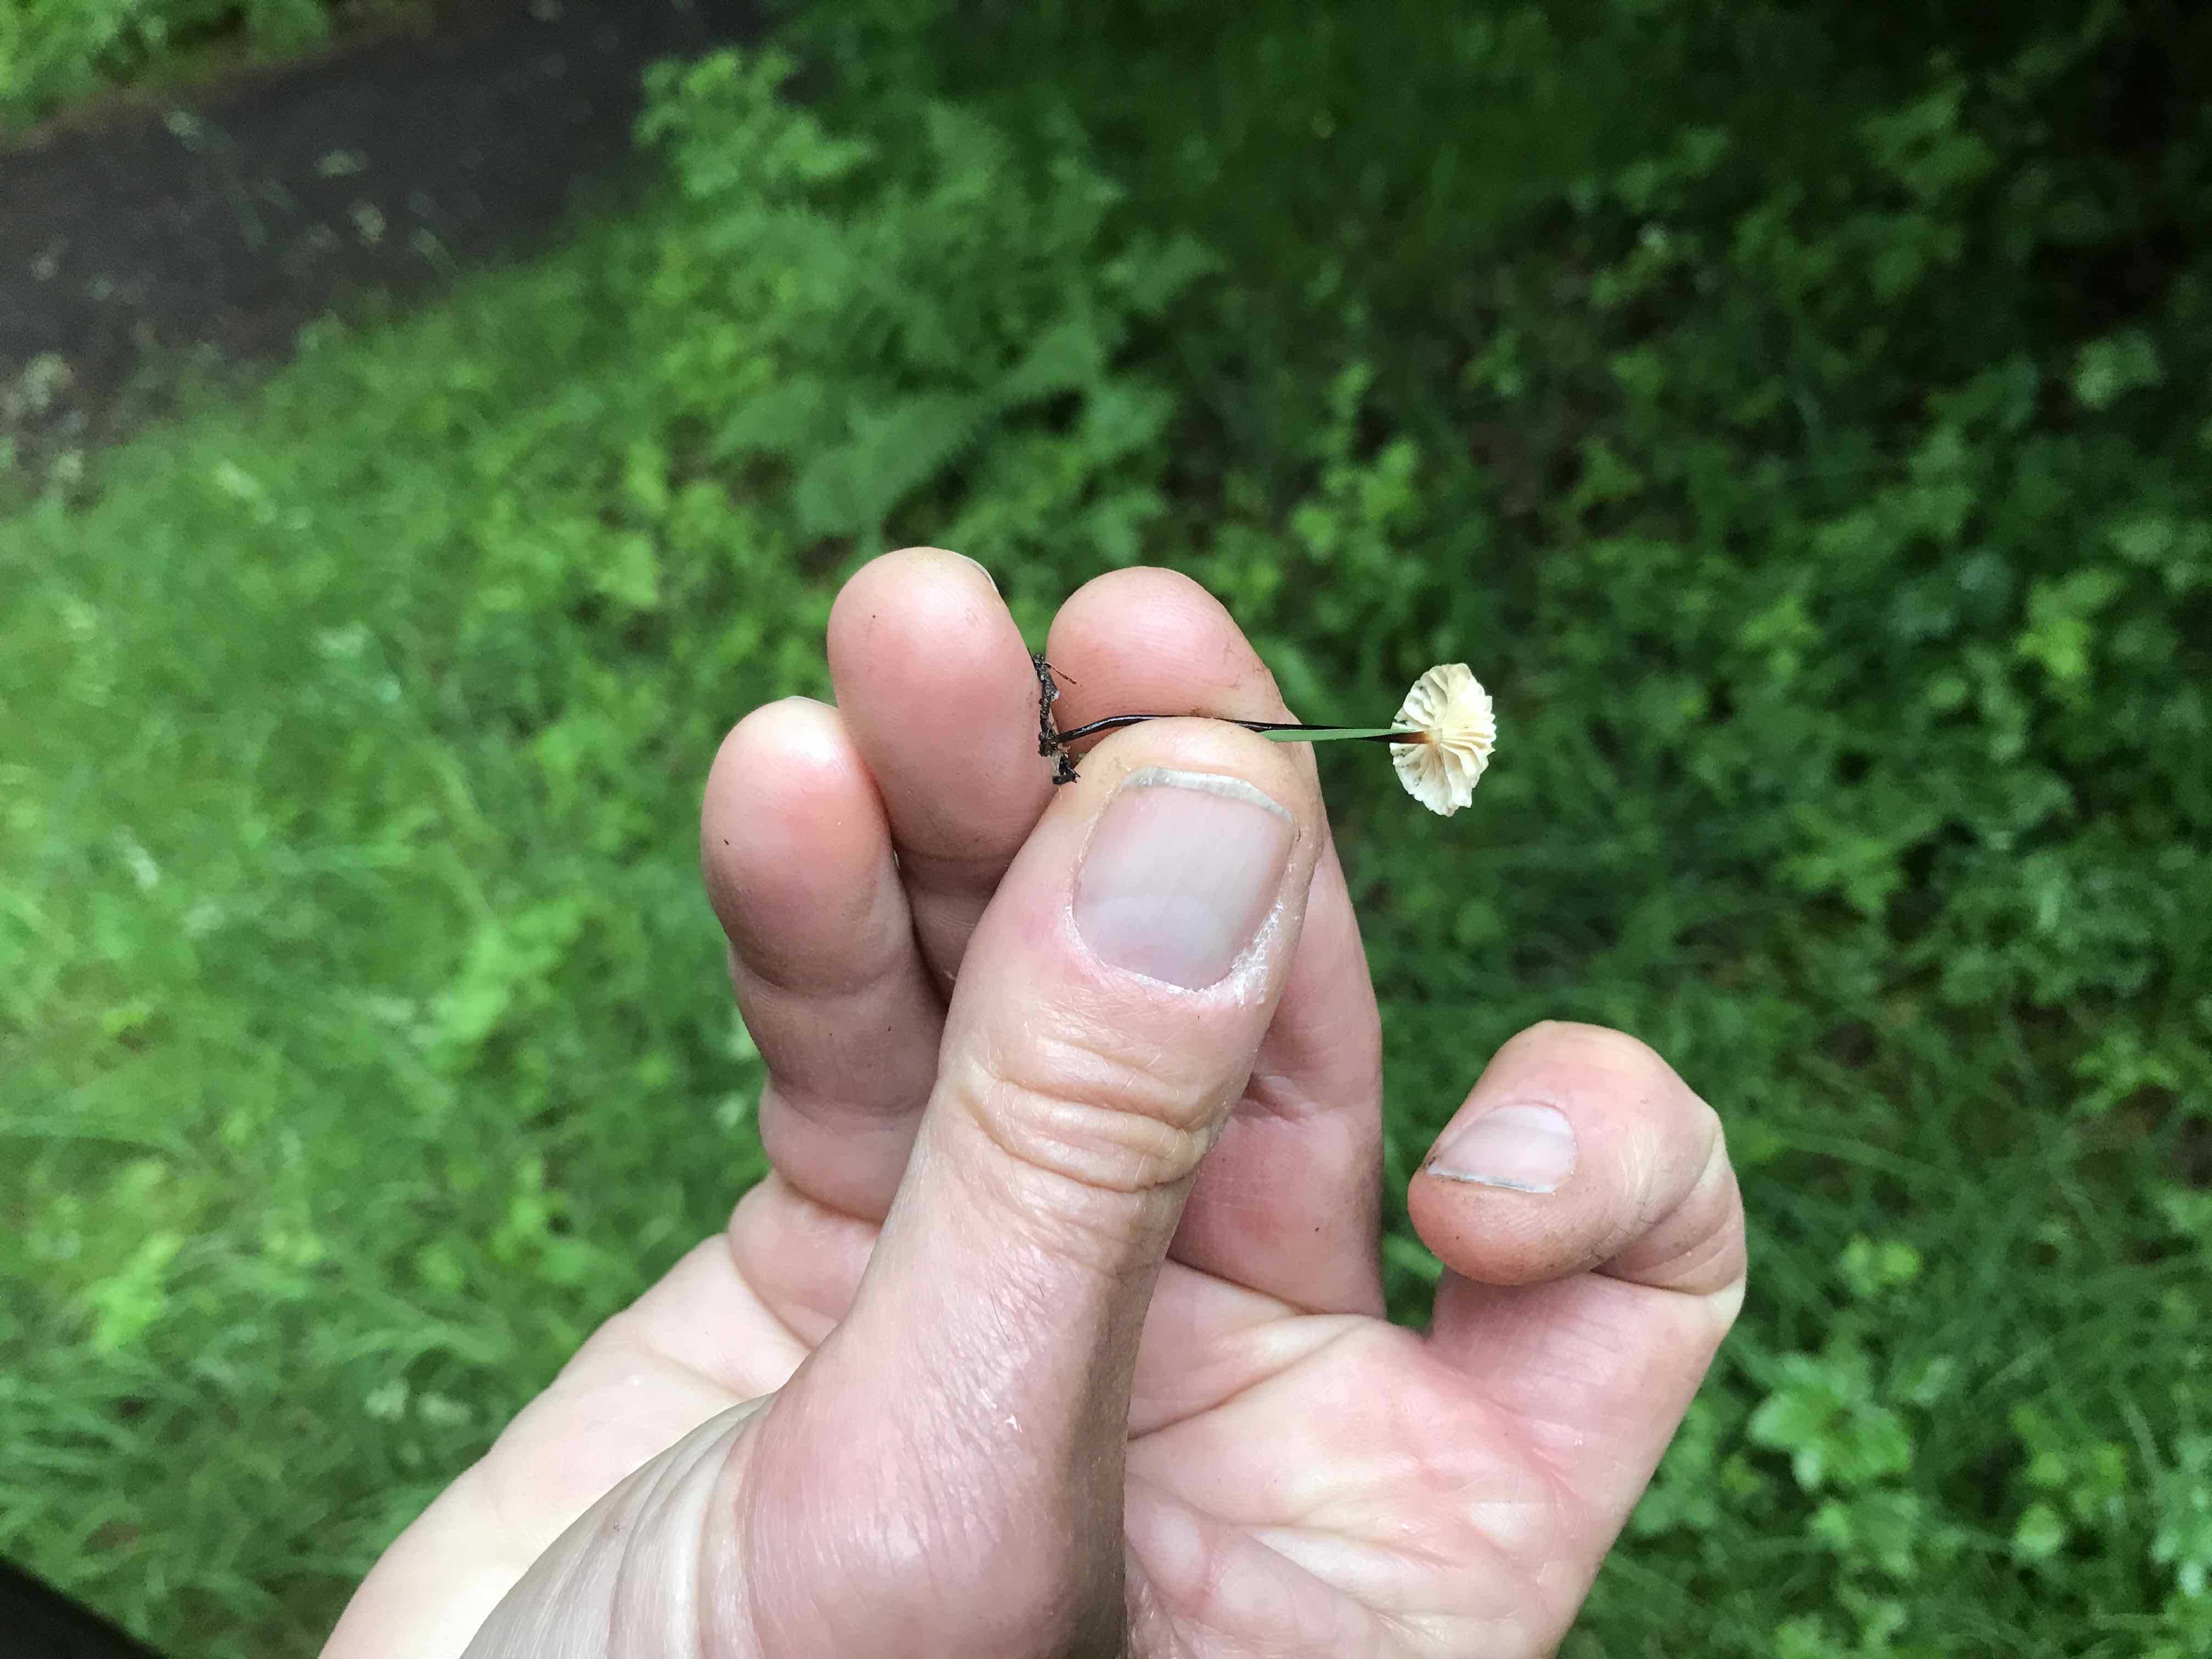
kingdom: Fungi
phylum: Basidiomycota
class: Agaricomycetes
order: Agaricales
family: Marasmiaceae
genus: Marasmius
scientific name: Marasmius rotula
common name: hjul-bruskhat
